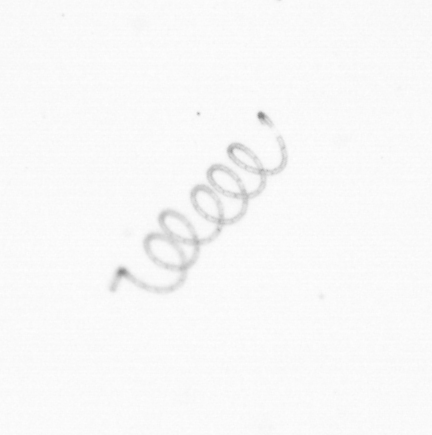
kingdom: Chromista
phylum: Ochrophyta
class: Bacillariophyceae
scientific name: Bacillariophyceae
